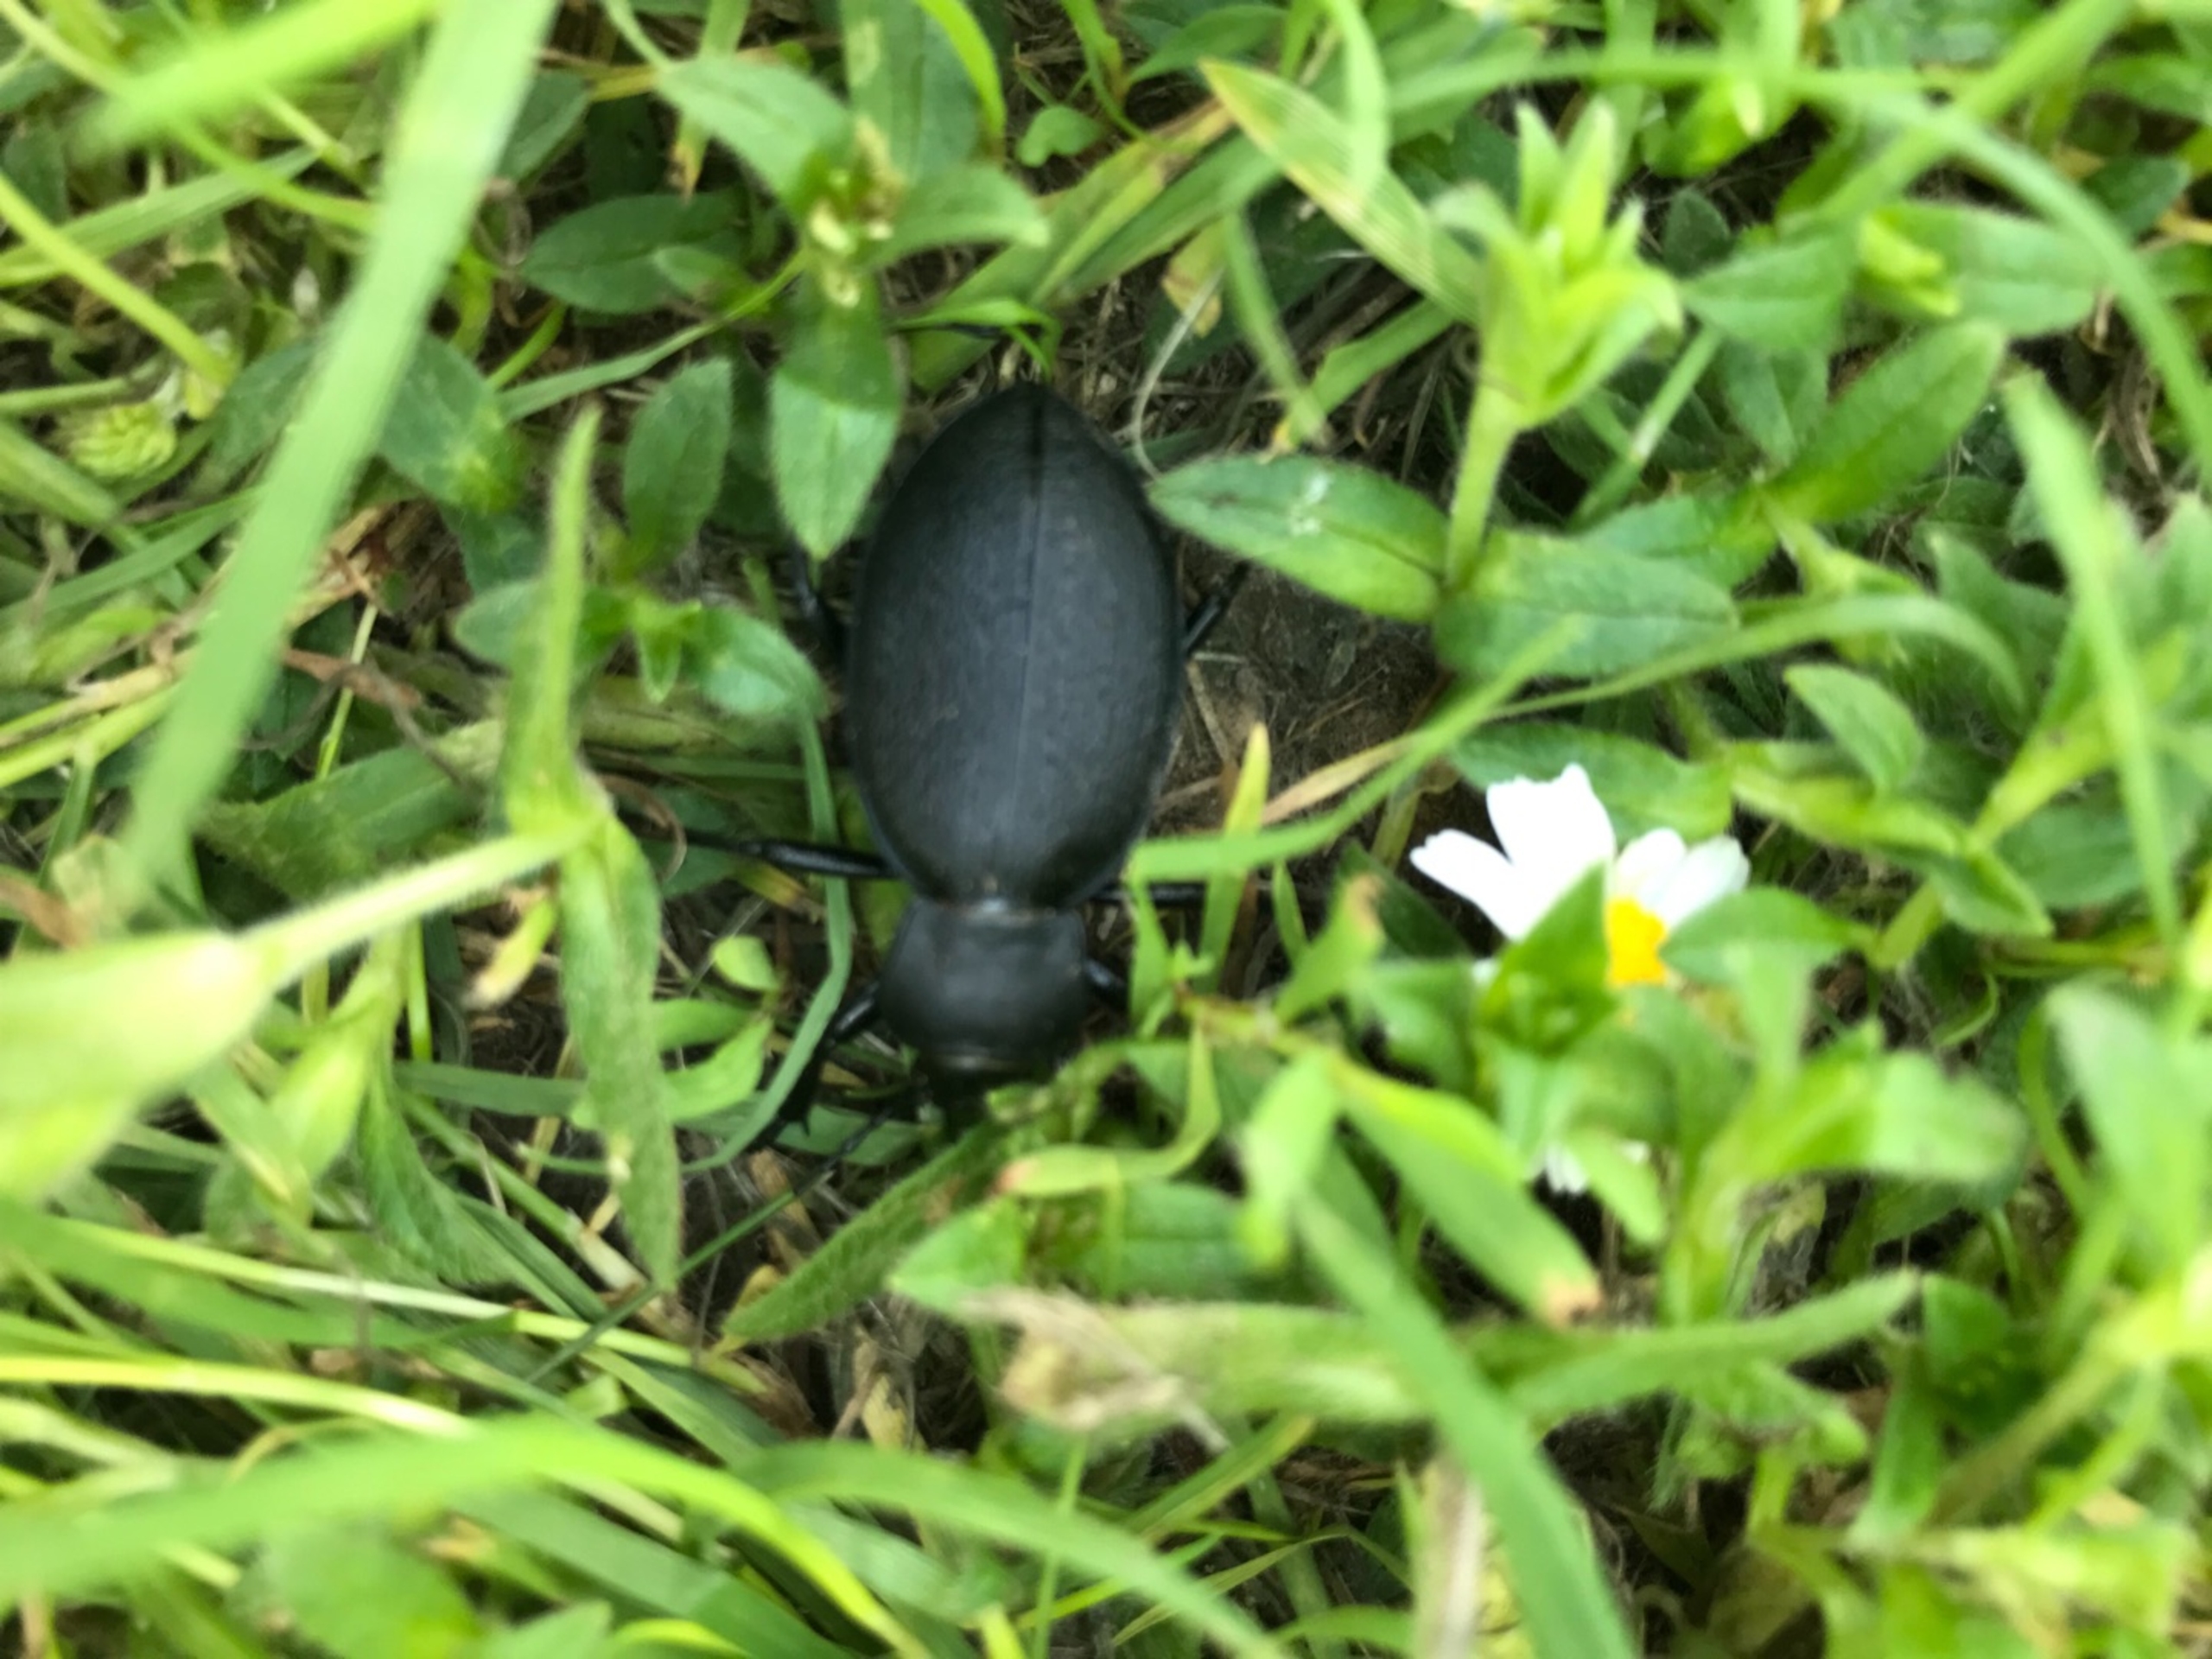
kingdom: Animalia
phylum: Arthropoda
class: Insecta
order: Coleoptera
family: Carabidae
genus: Carabus
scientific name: Carabus coriaceus
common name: Læderløber
